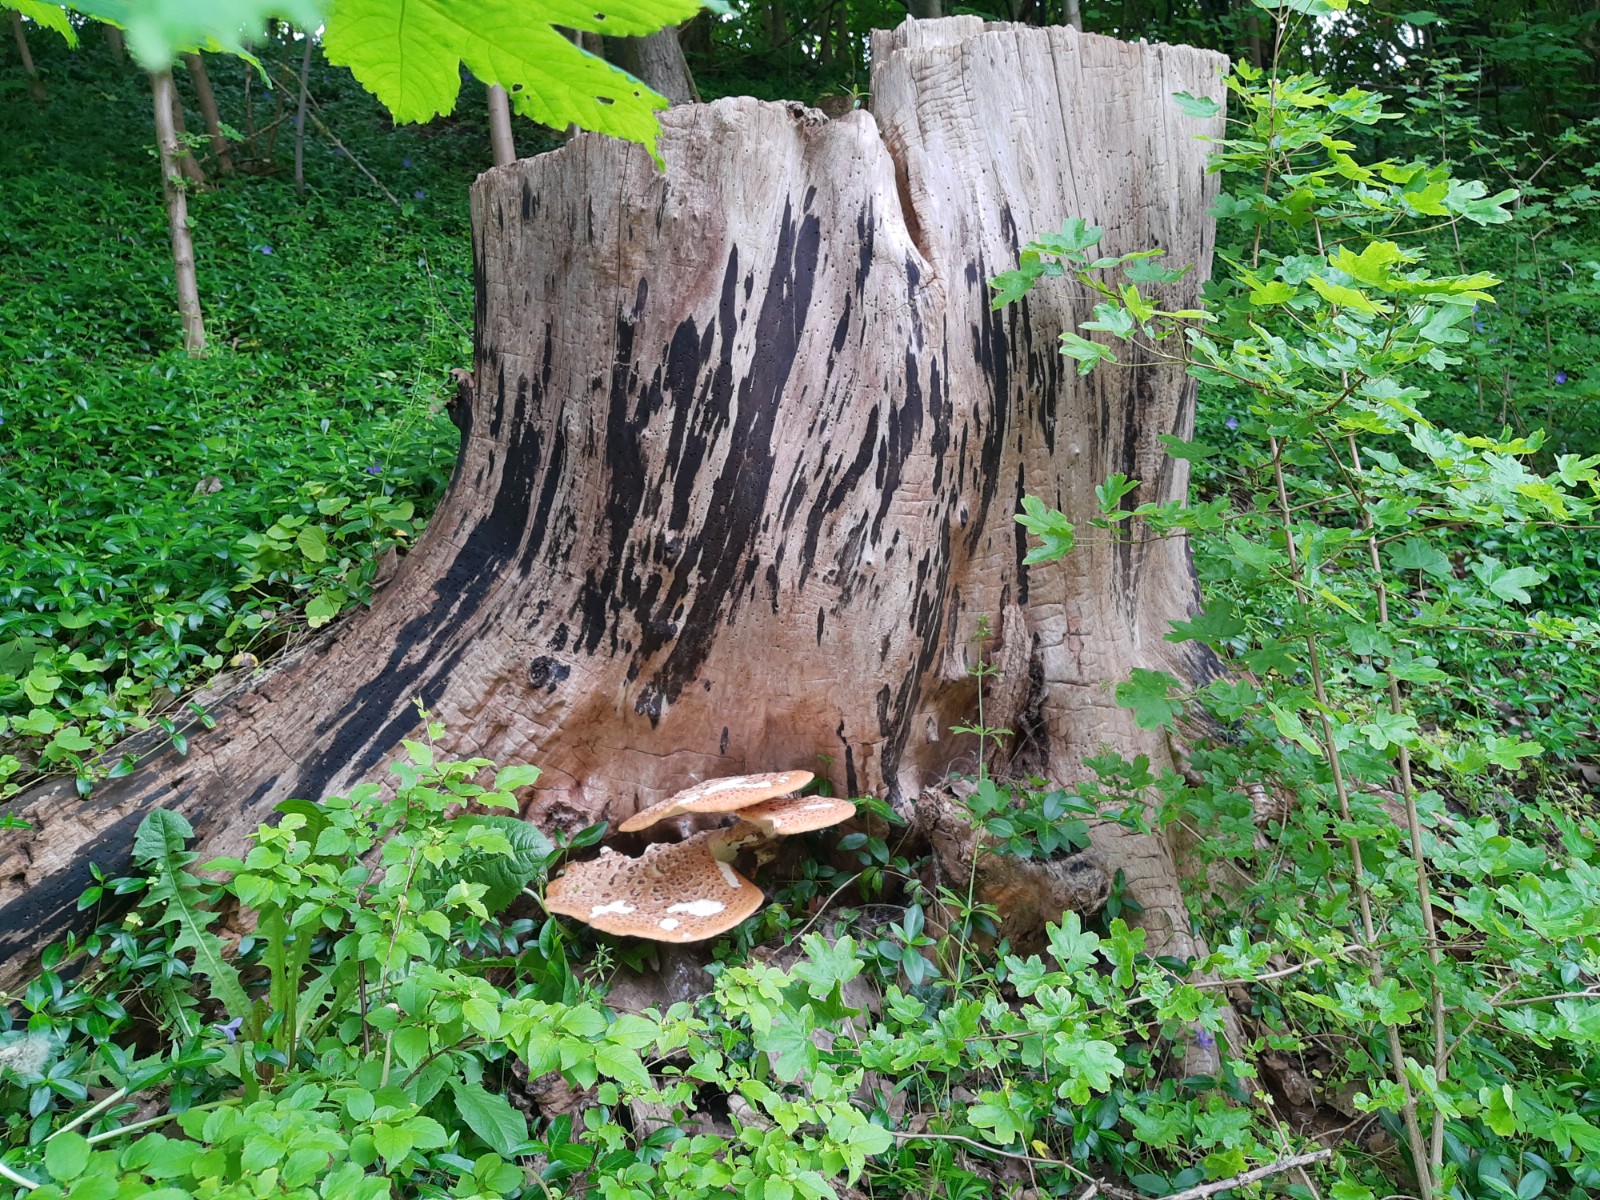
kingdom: Fungi
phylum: Basidiomycota
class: Agaricomycetes
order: Polyporales
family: Polyporaceae
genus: Cerioporus
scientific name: Cerioporus squamosus
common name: skællet stilkporesvamp
